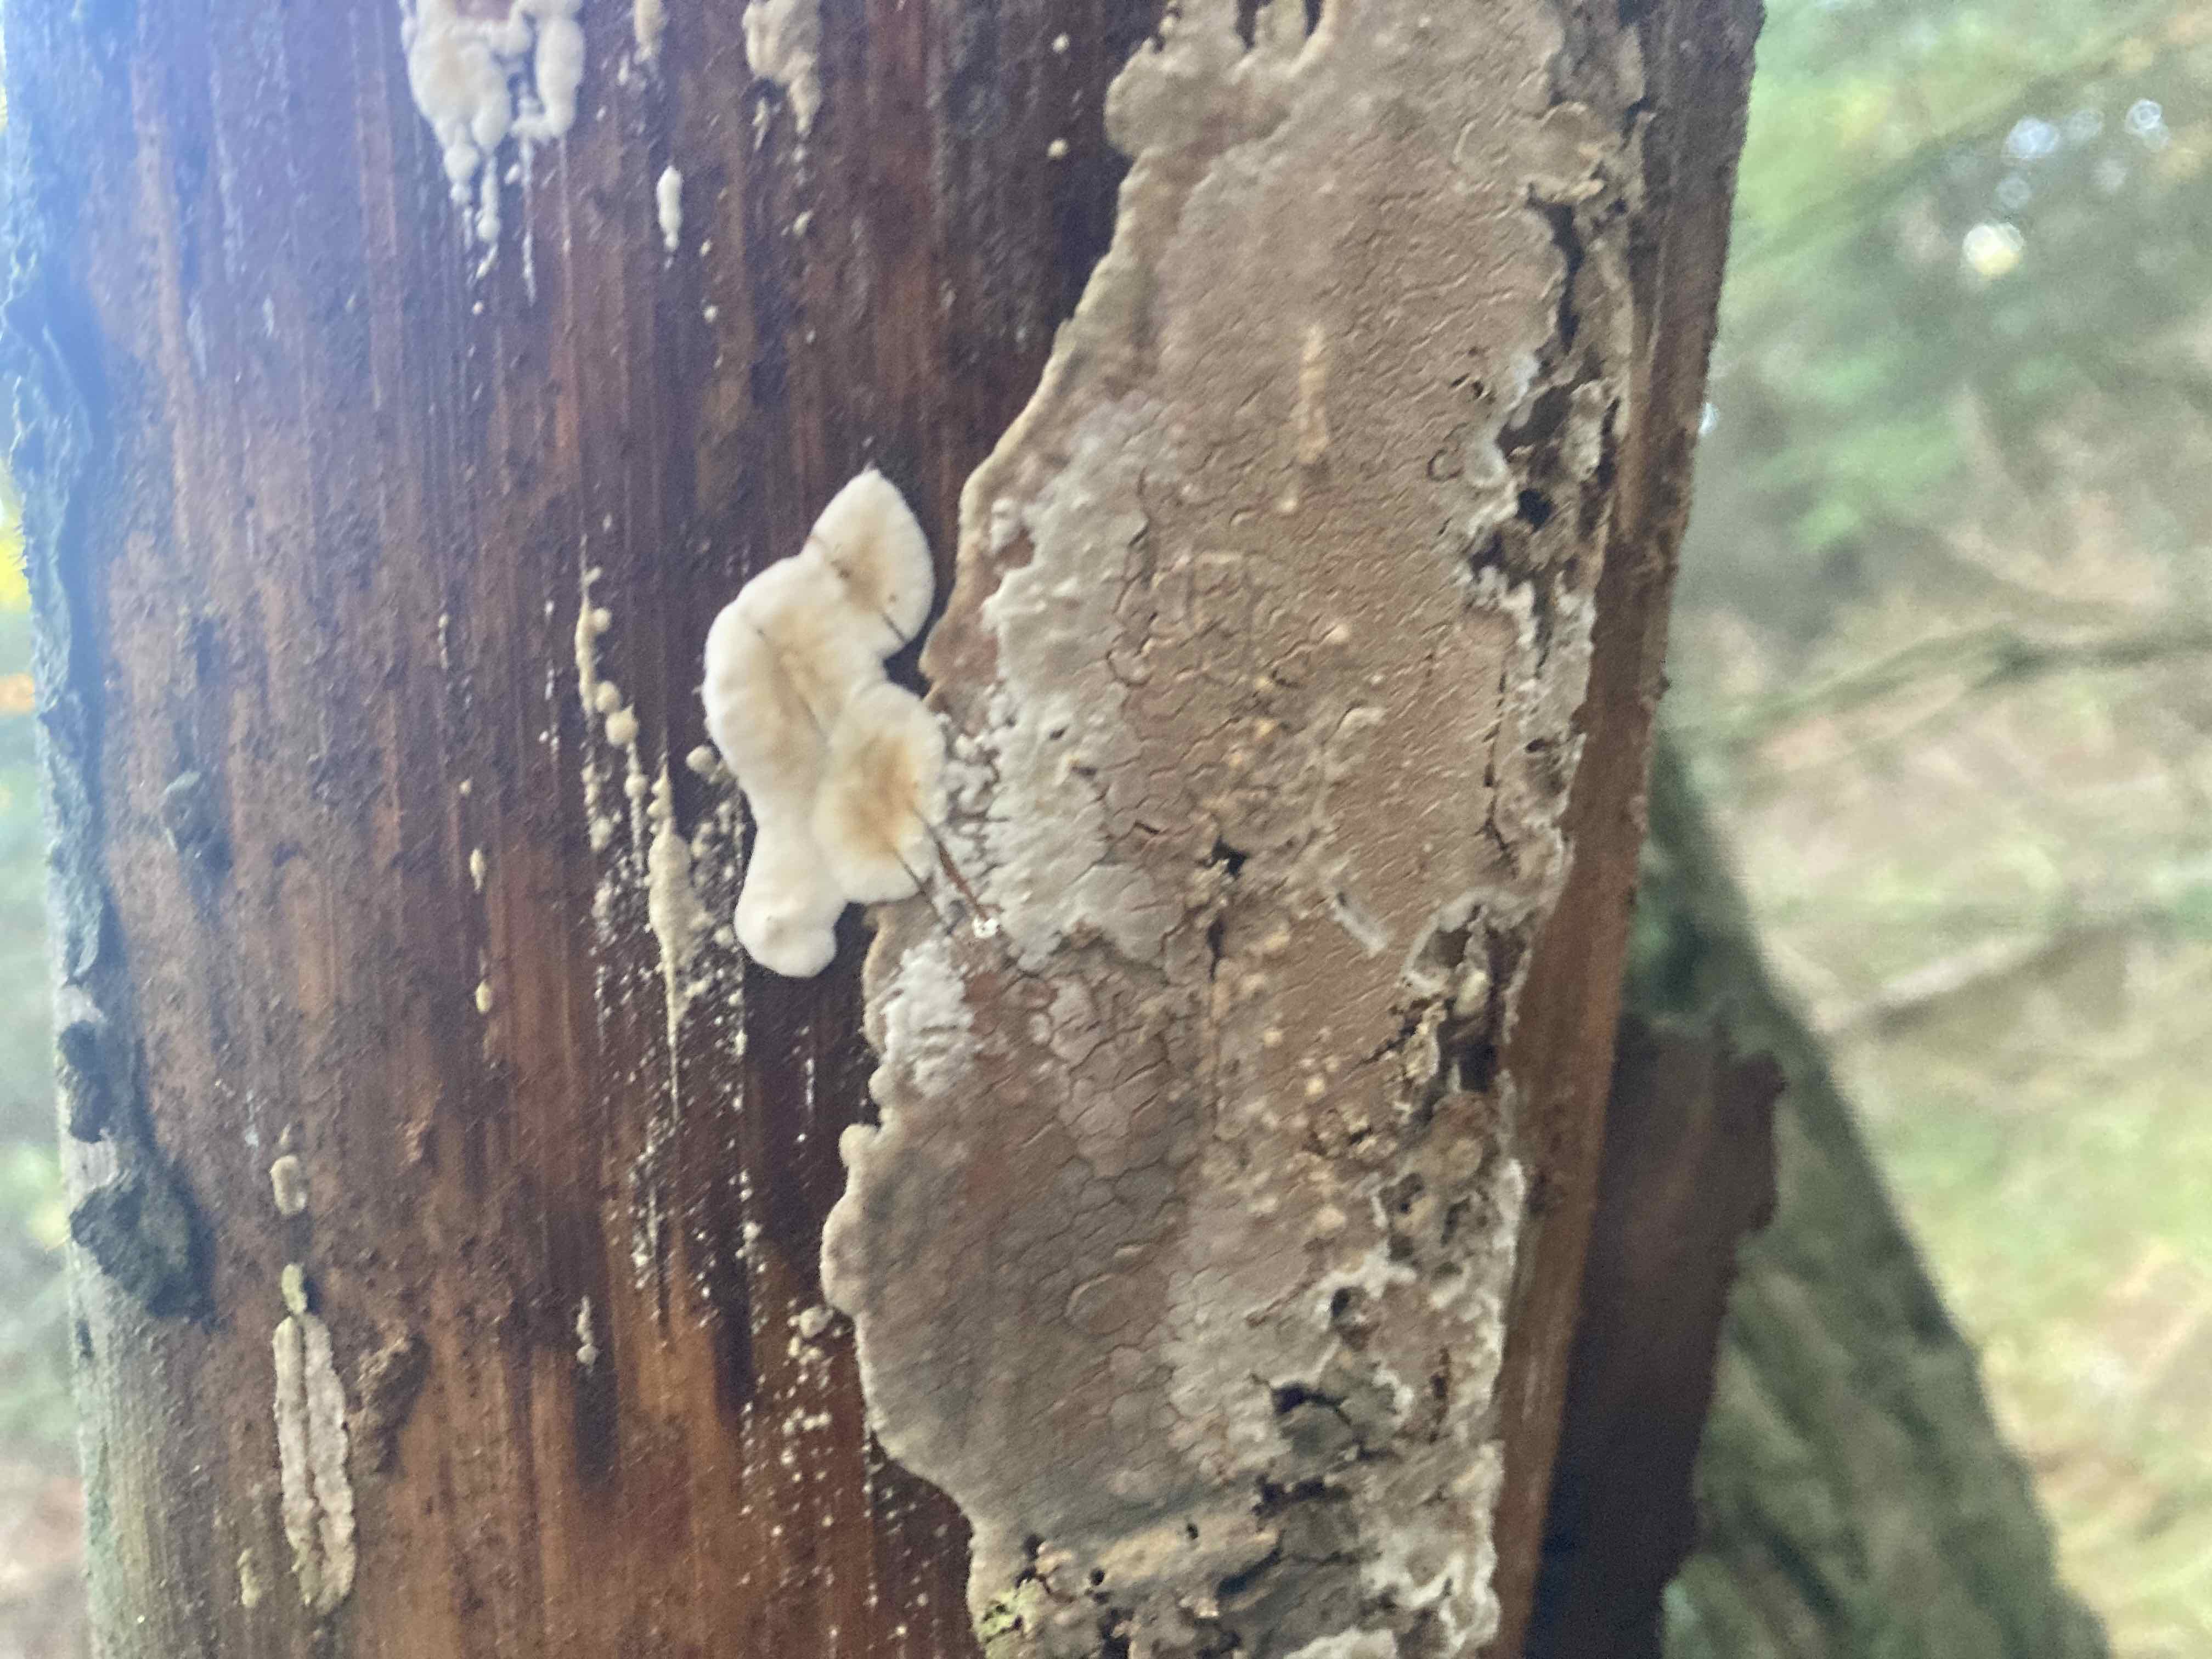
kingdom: Fungi
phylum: Basidiomycota
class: Agaricomycetes
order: Polyporales
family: Dacryobolaceae
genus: Dacryobolus
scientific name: Dacryobolus karstenii
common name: glat vulkanskorpe
